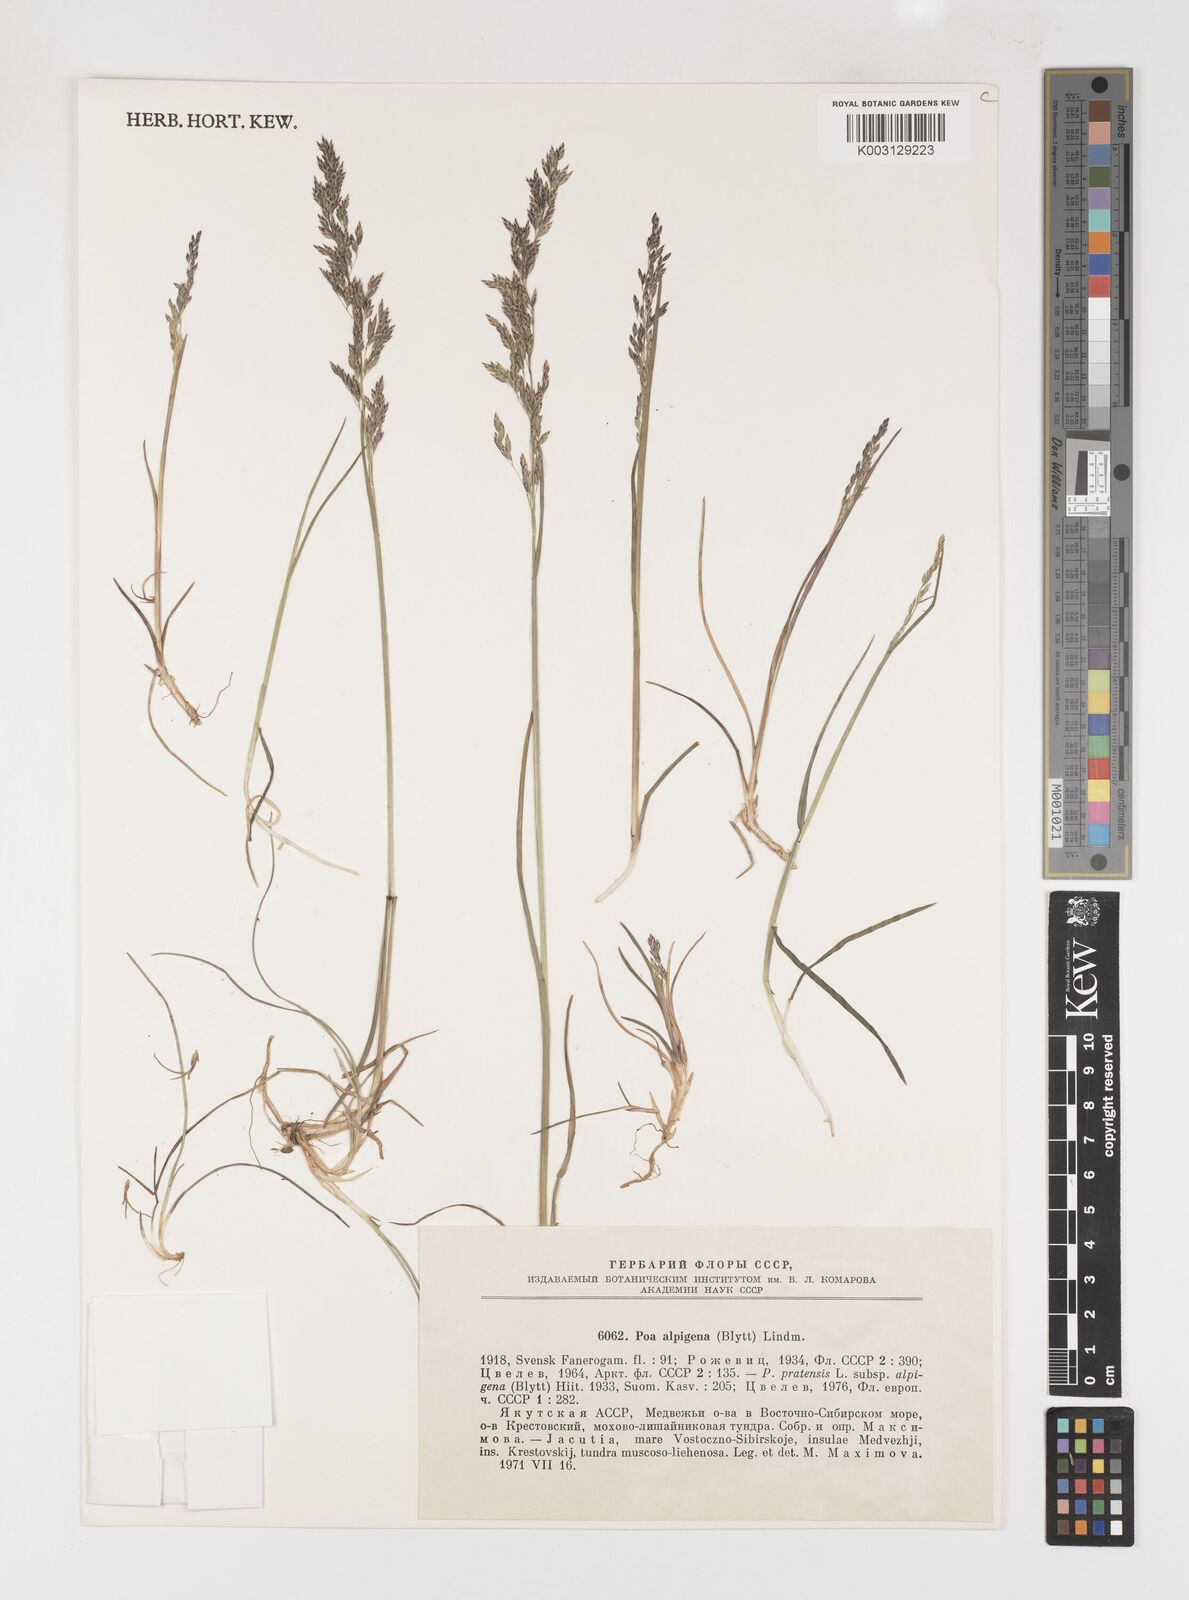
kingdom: Plantae
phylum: Tracheophyta
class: Liliopsida
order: Poales
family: Poaceae
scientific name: Poaceae
